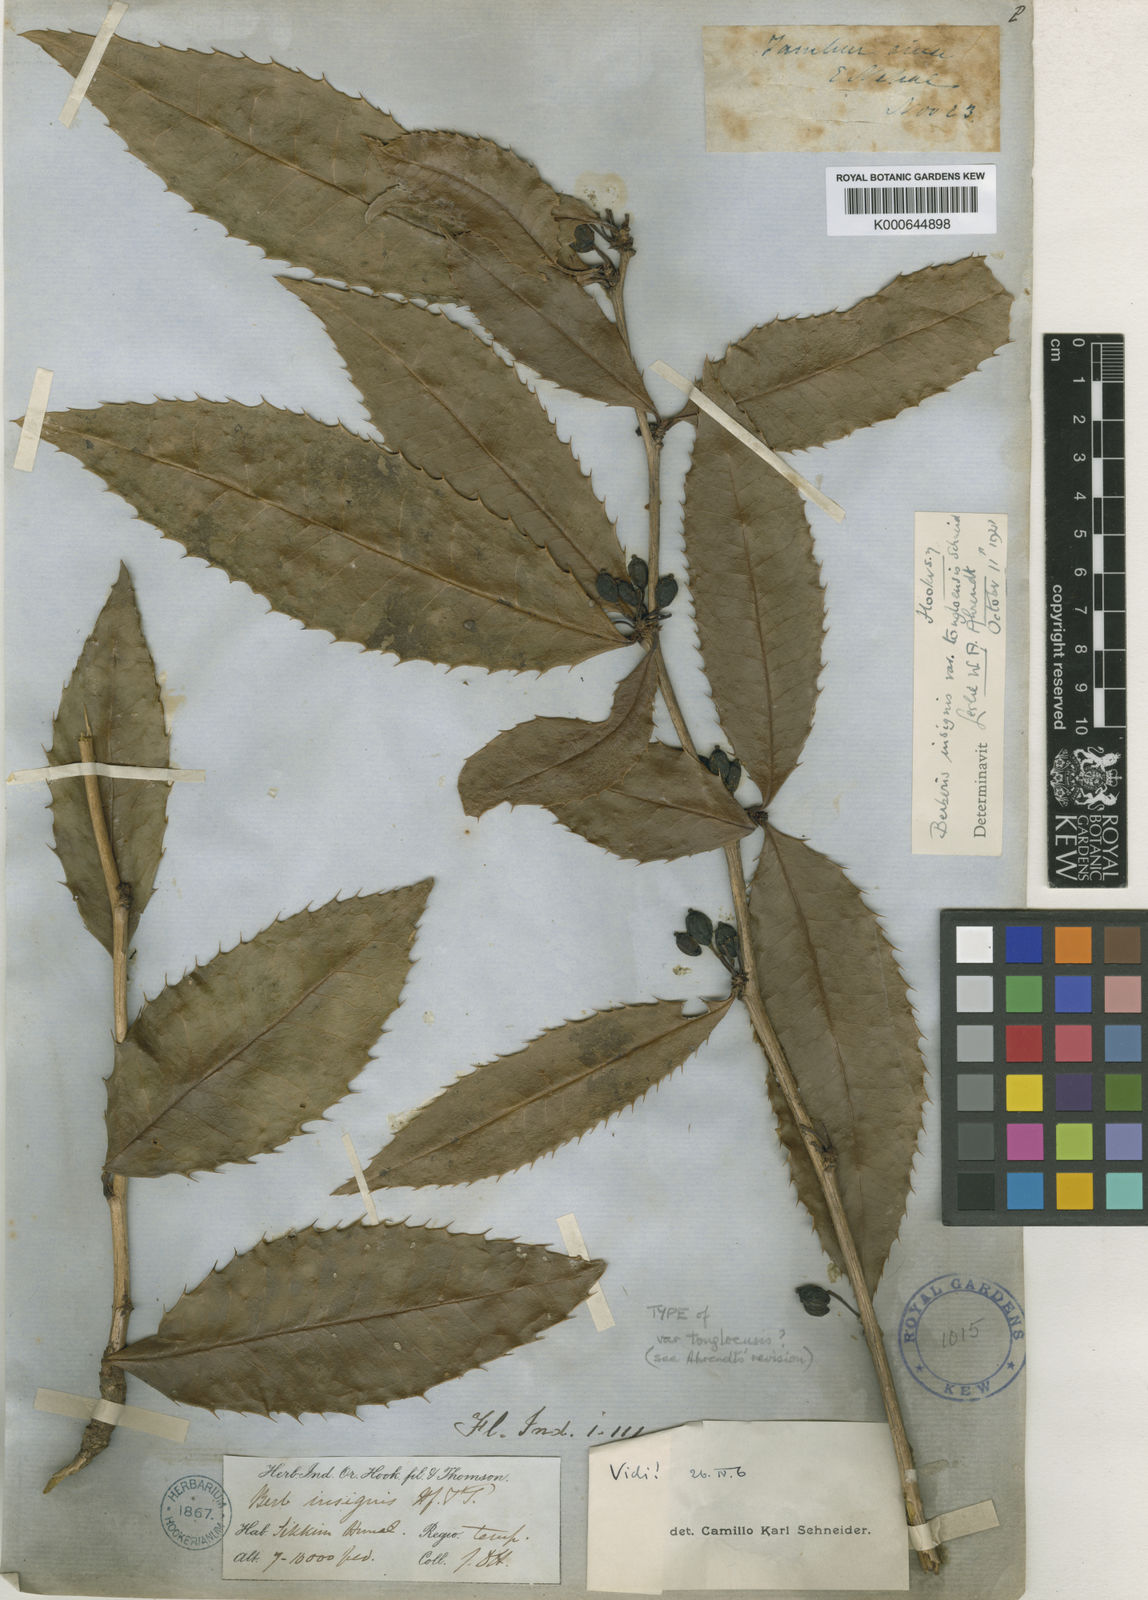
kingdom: Plantae
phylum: Tracheophyta
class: Magnoliopsida
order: Ranunculales
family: Berberidaceae
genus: Berberis
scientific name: Berberis insignis
